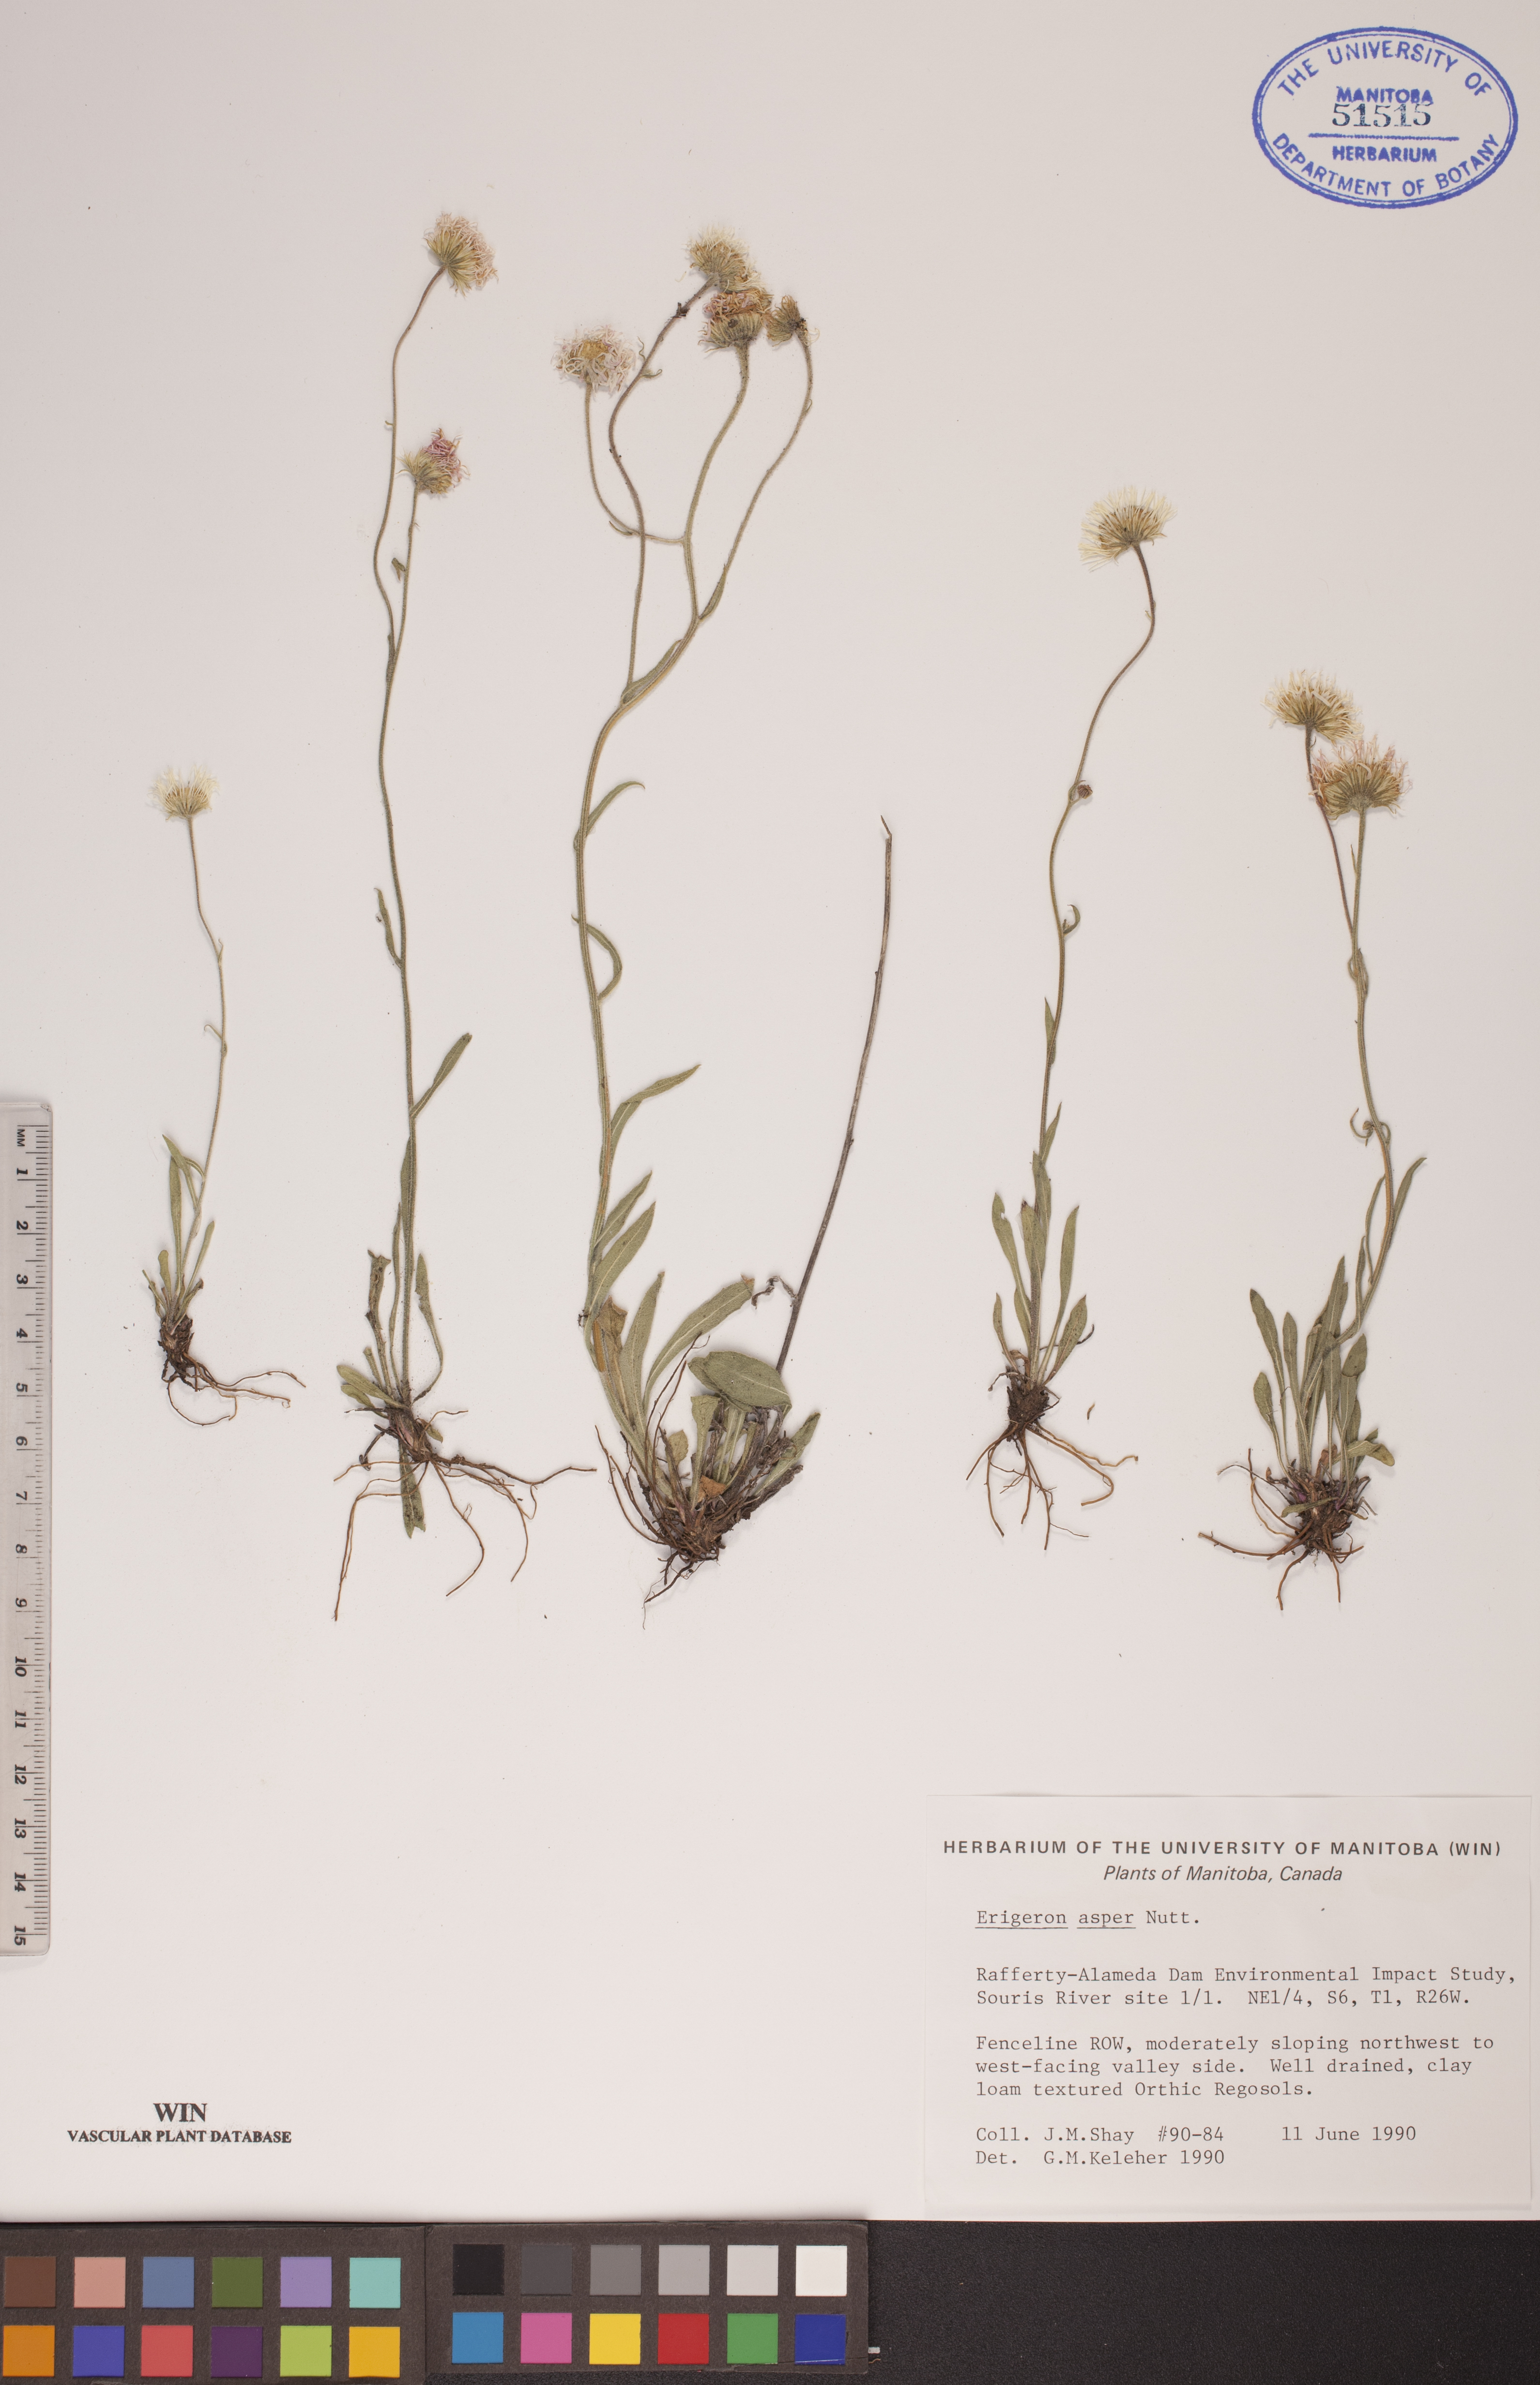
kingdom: Plantae
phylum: Tracheophyta
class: Magnoliopsida
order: Asterales
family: Asteraceae
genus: Erigeron
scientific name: Erigeron glabellus
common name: Smooth fleabane
